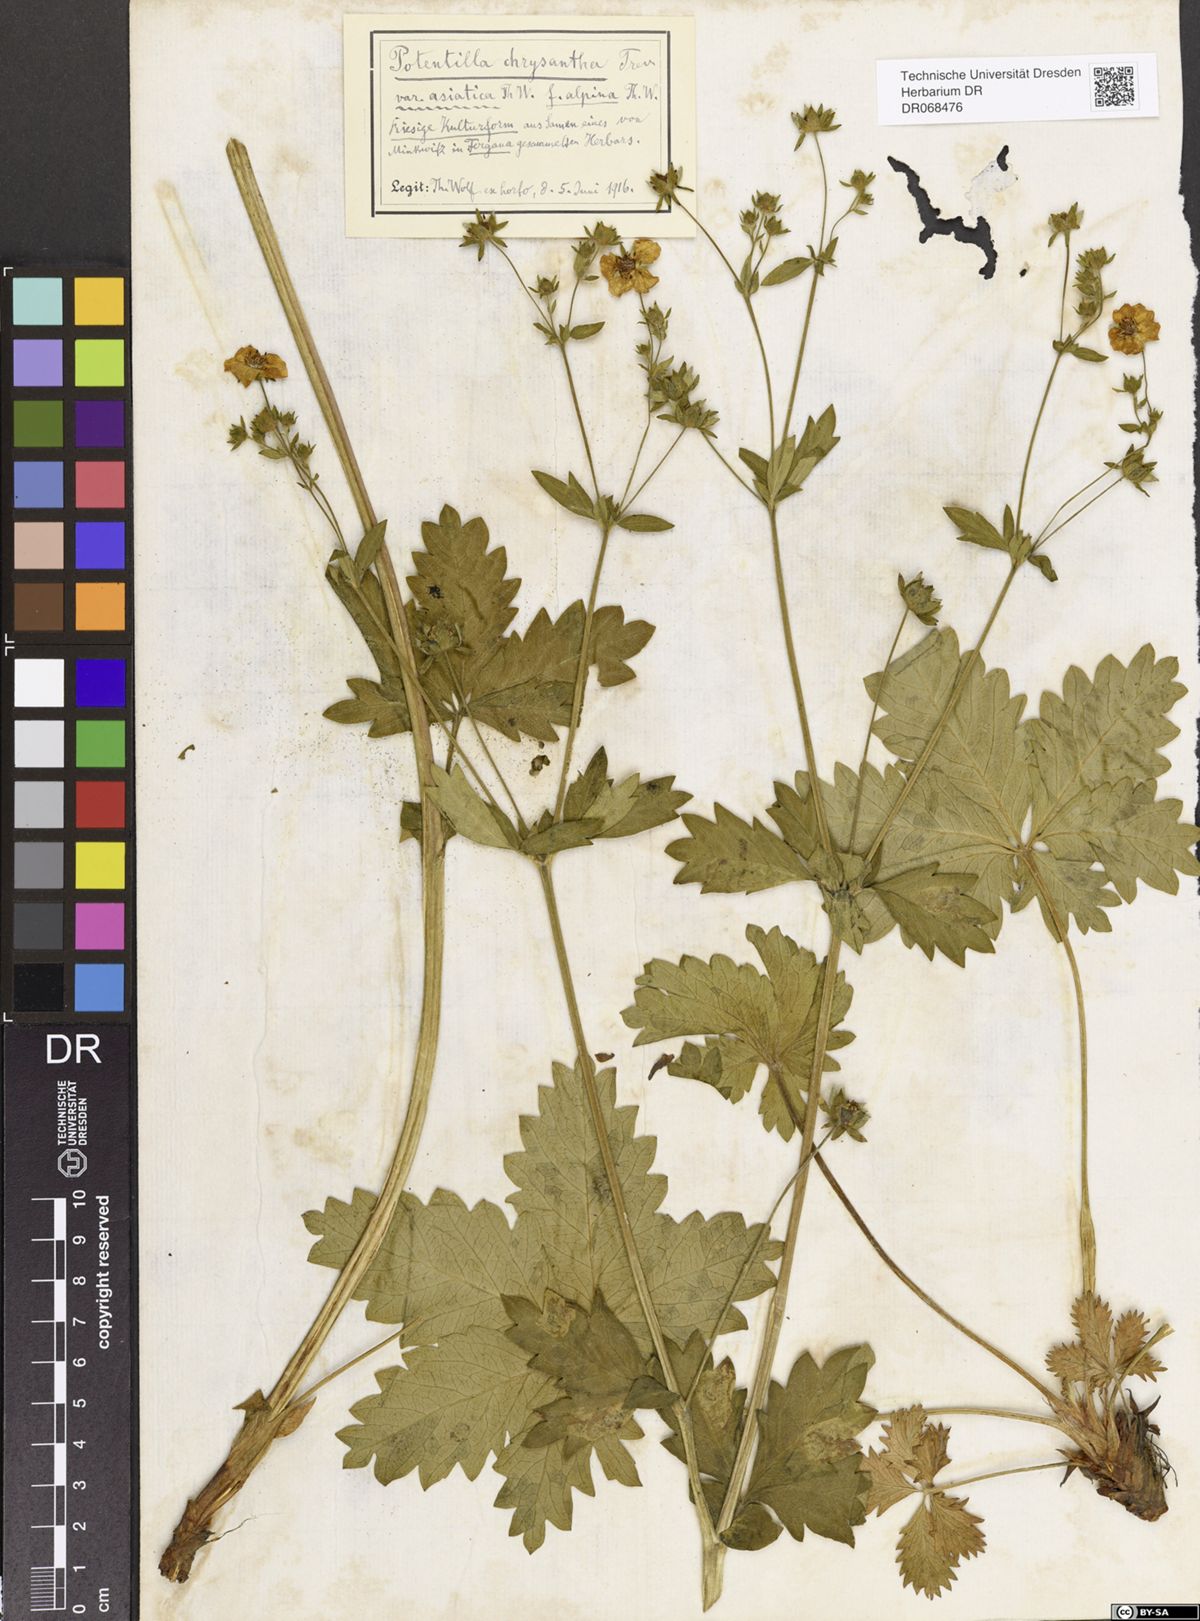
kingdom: Plantae
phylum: Tracheophyta
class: Magnoliopsida
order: Rosales
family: Rosaceae
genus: Potentilla
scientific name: Potentilla asiatica
